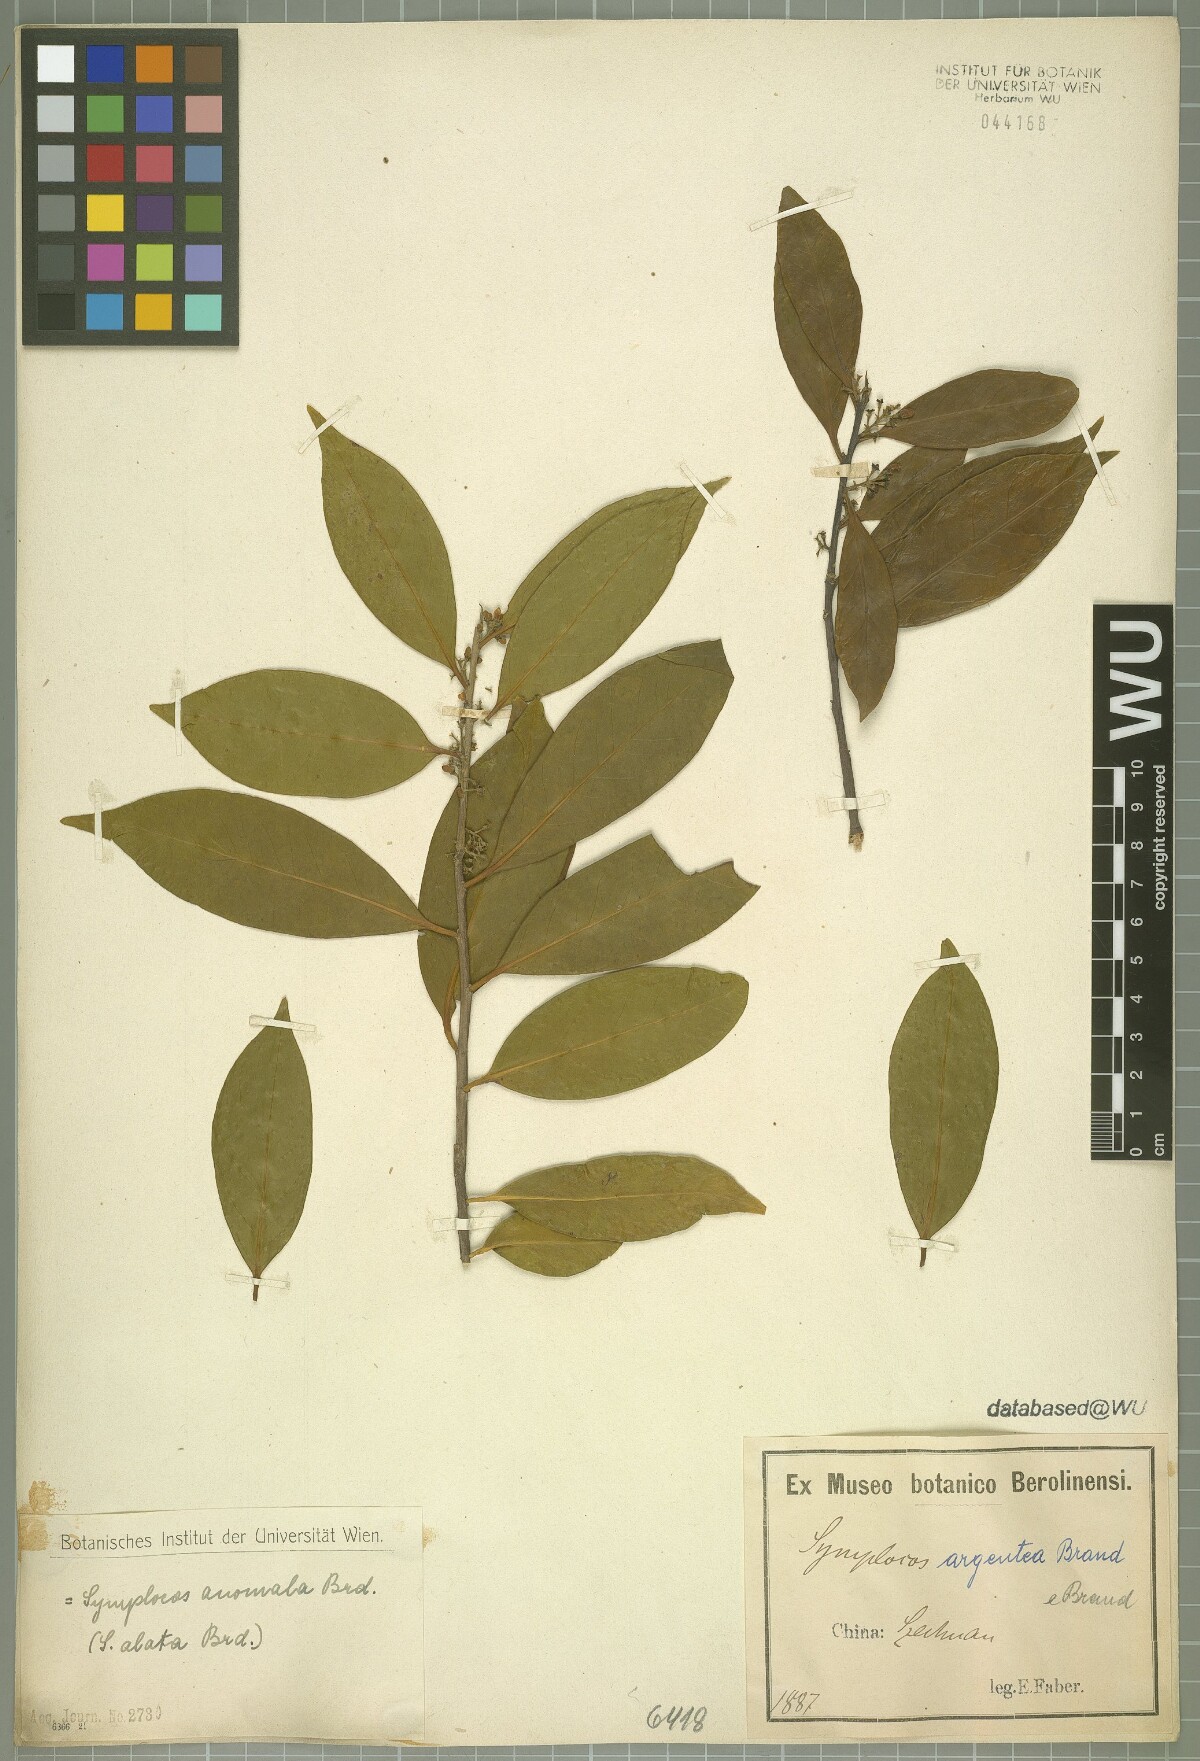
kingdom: Plantae
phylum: Tracheophyta
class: Magnoliopsida
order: Ericales
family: Symplocaceae
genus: Symplocos
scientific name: Symplocos anomala
